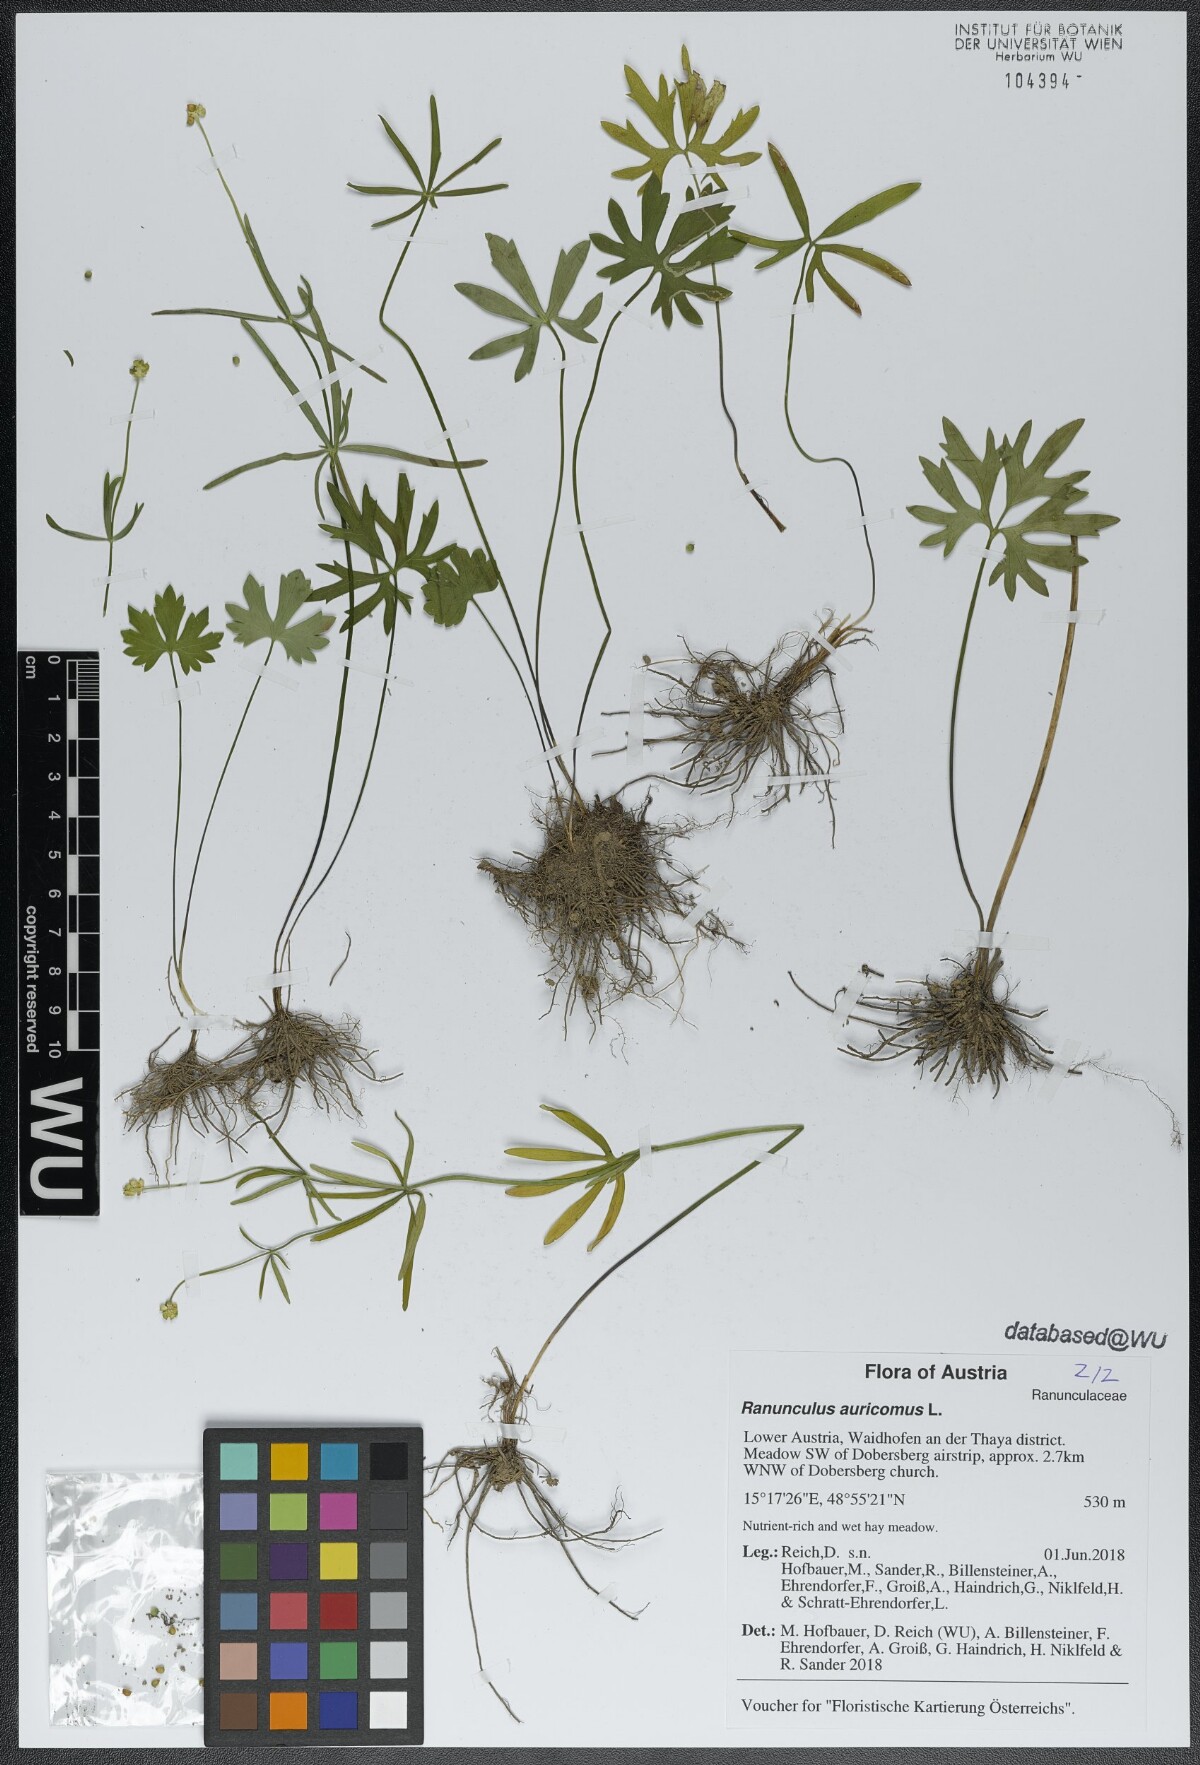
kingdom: Plantae
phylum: Tracheophyta
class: Magnoliopsida
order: Ranunculales
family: Ranunculaceae
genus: Ranunculus
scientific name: Ranunculus auricomus
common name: Goldilocks buttercup
